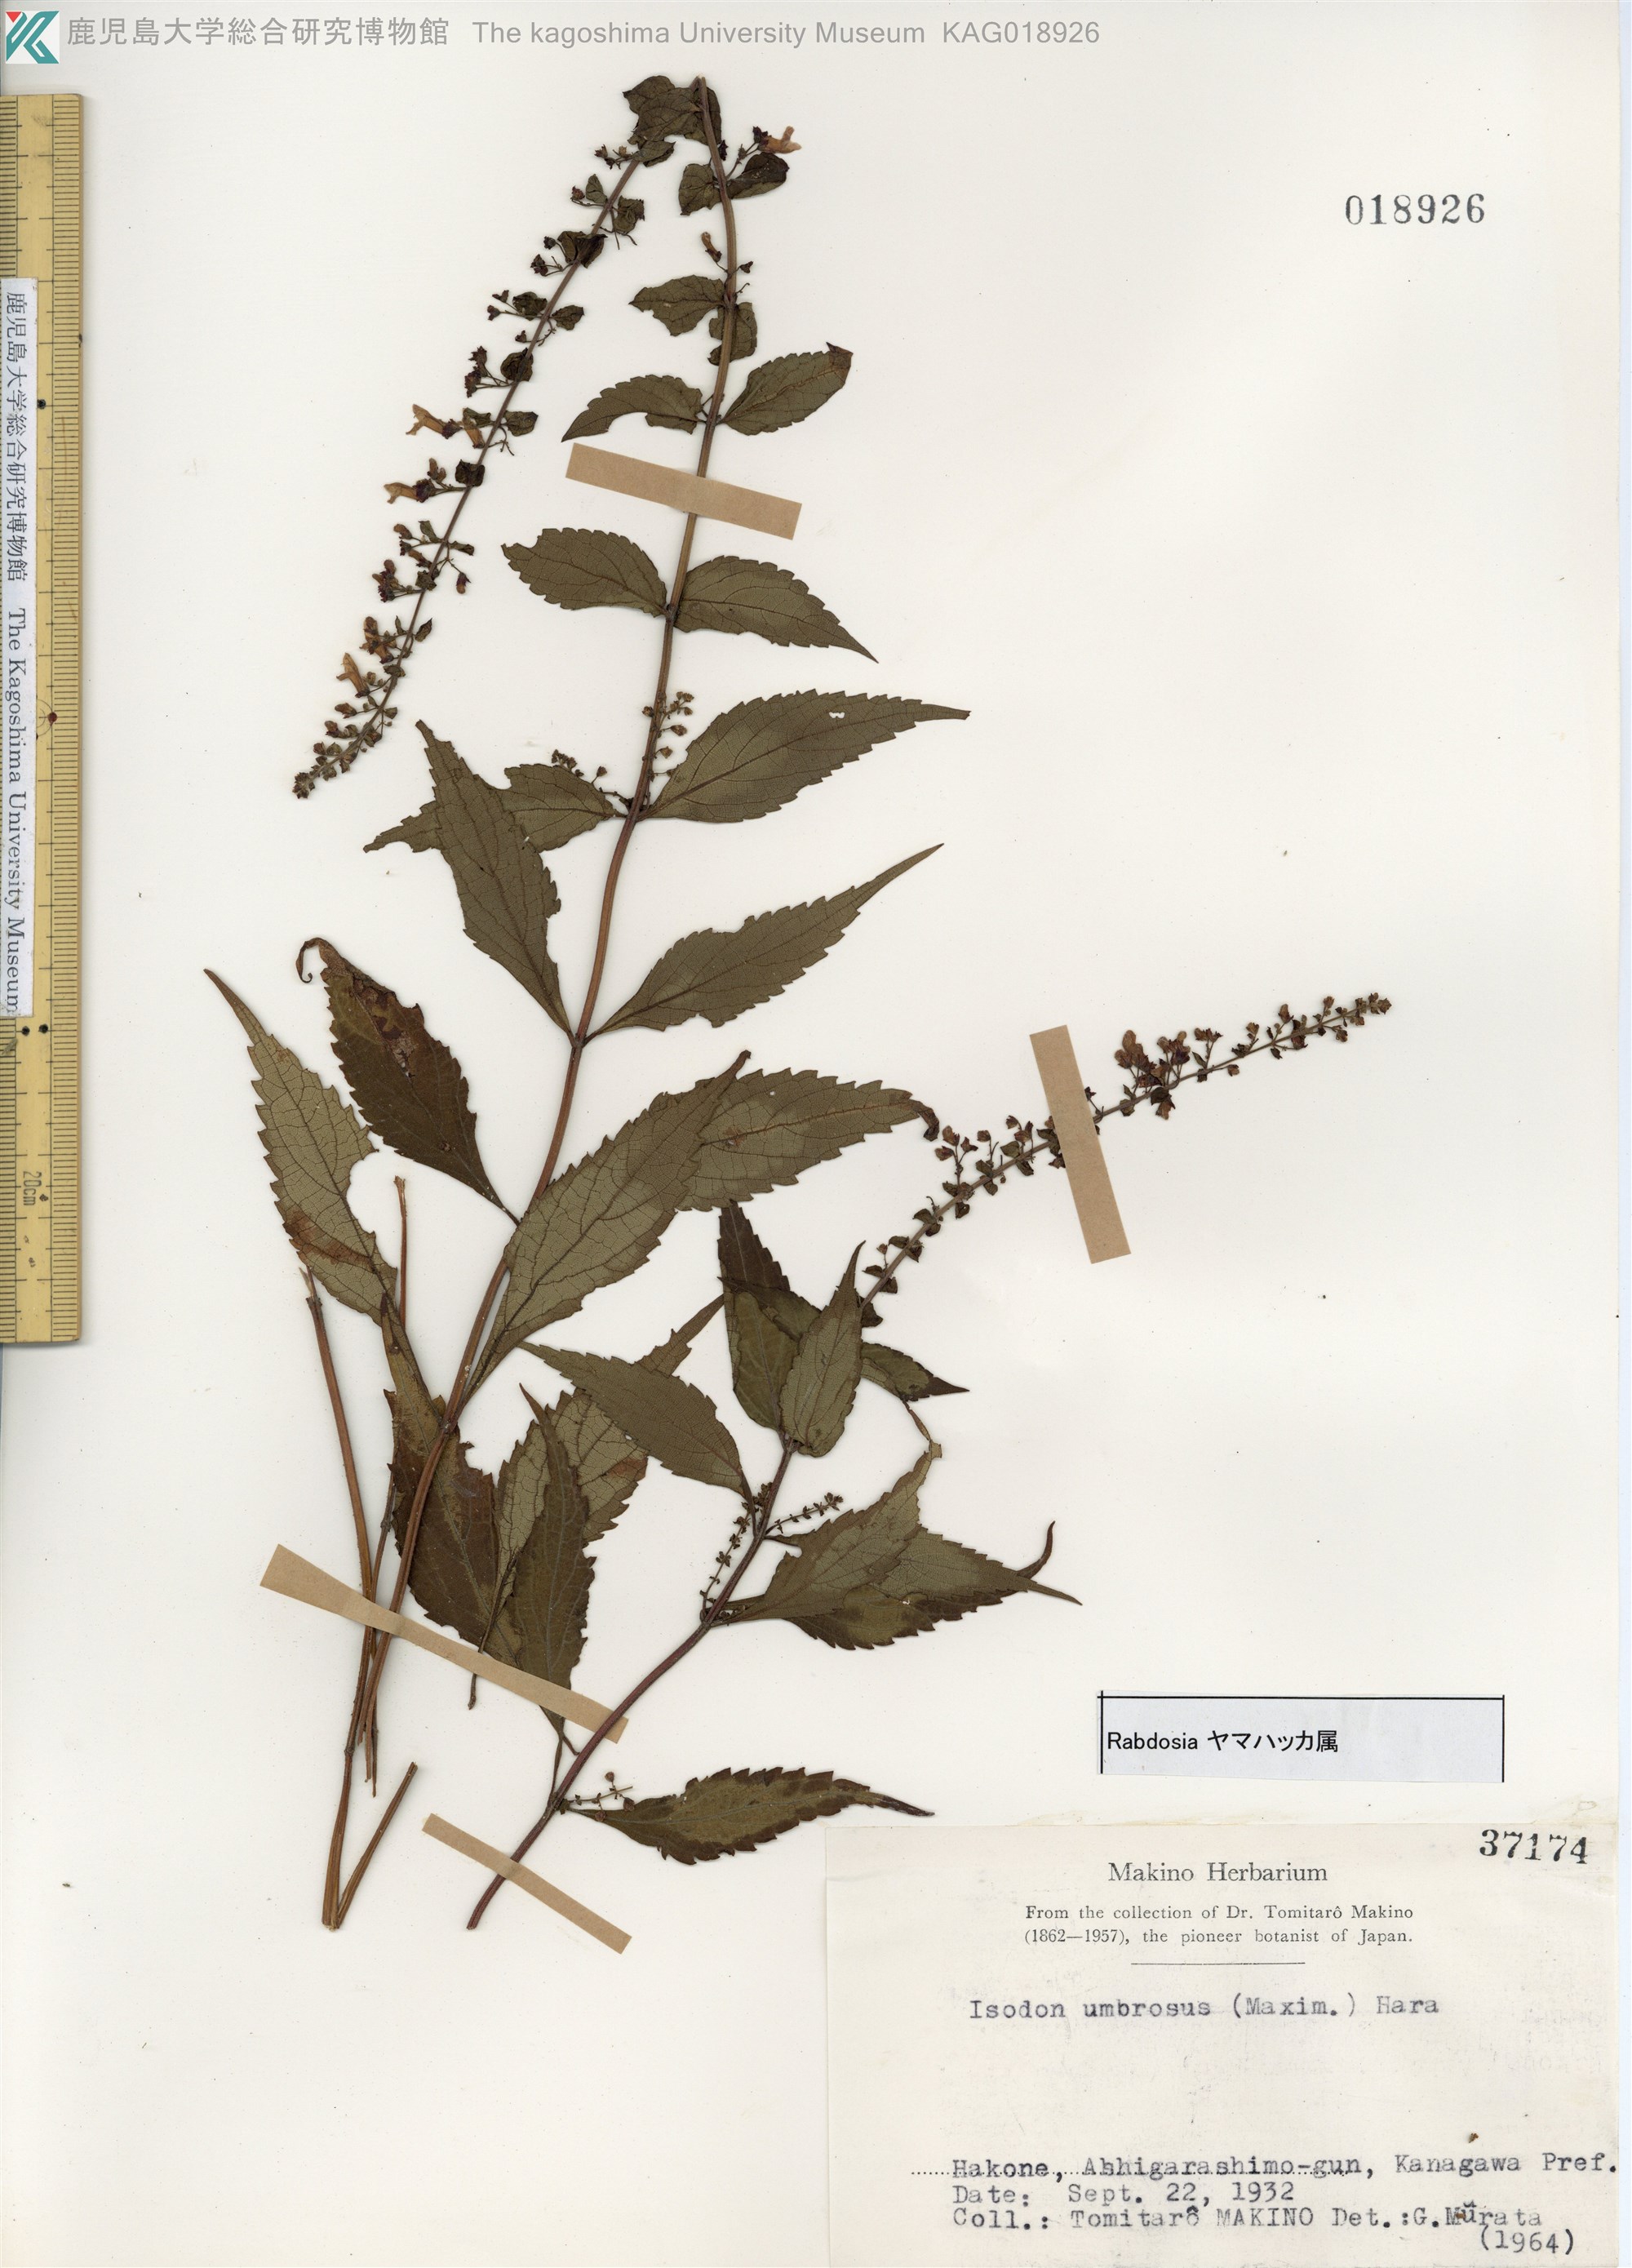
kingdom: Plantae
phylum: Tracheophyta
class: Magnoliopsida
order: Lamiales
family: Lamiaceae
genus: Isodon
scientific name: Isodon umbrosus
